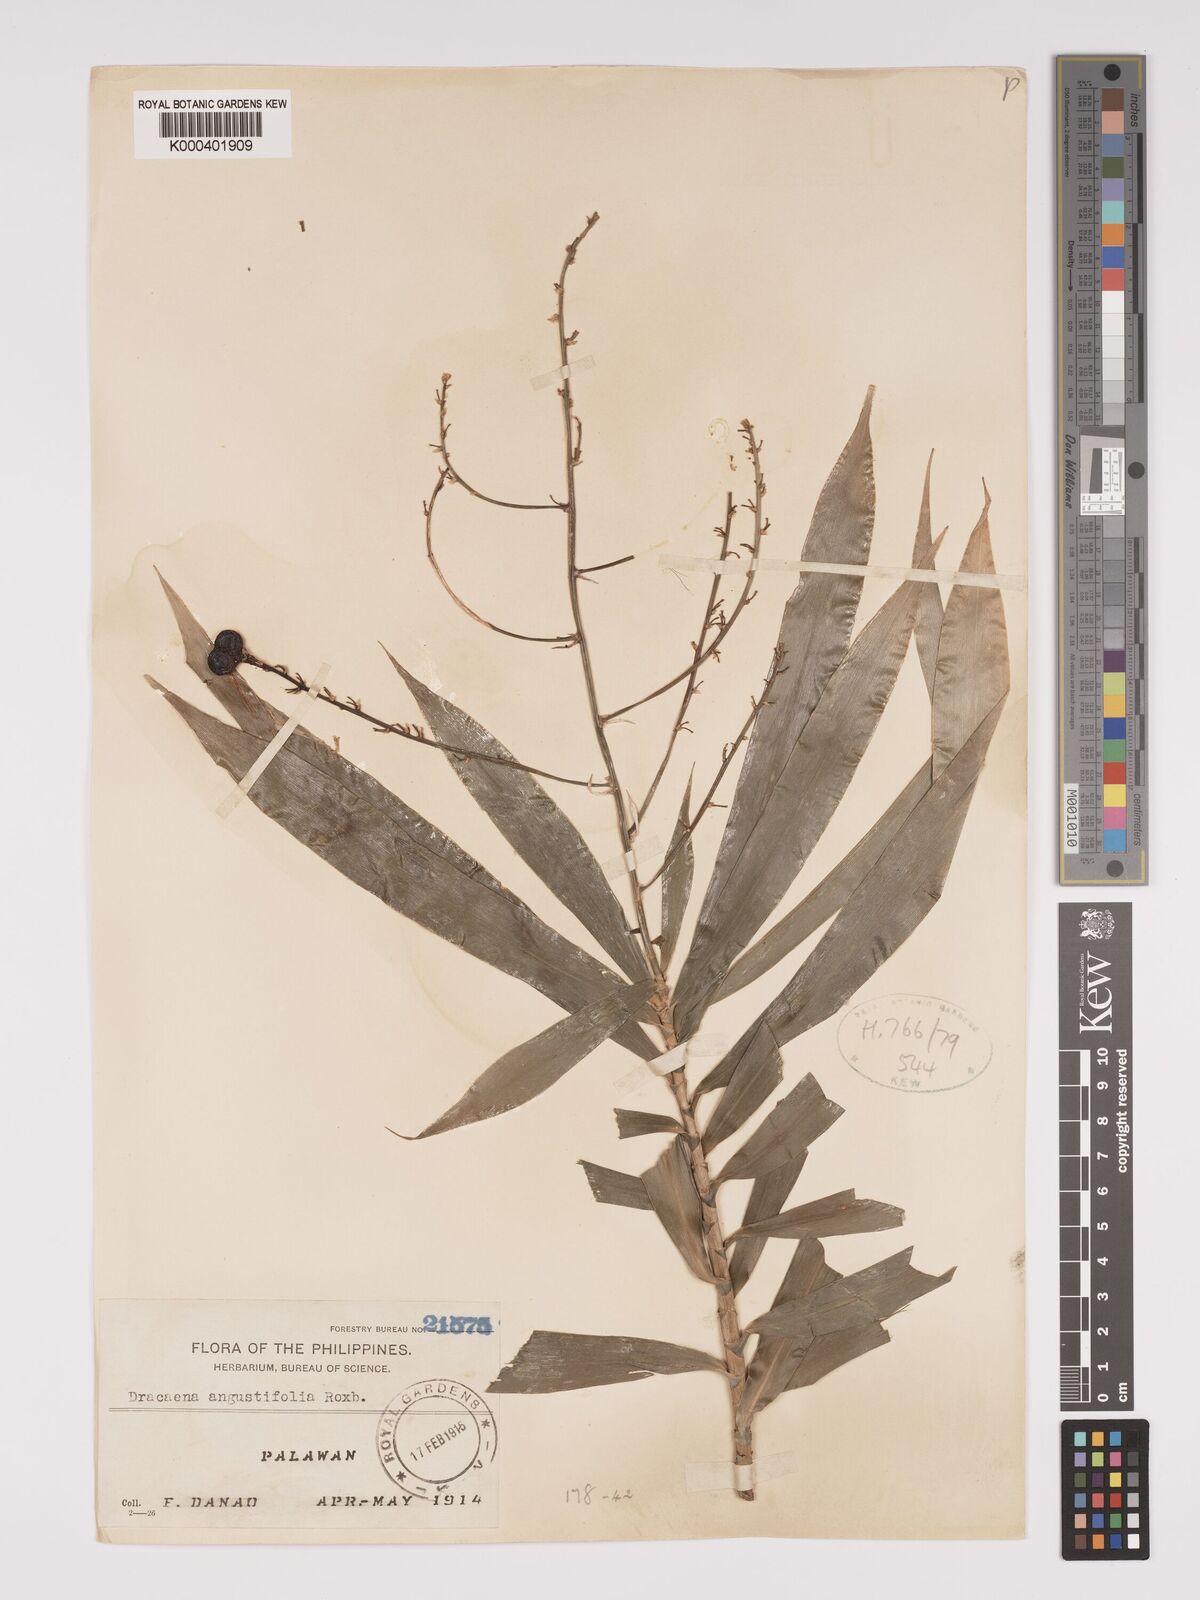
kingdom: Plantae
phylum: Tracheophyta
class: Liliopsida
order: Asparagales
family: Asparagaceae
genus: Dracaena
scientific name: Dracaena angustifolia
